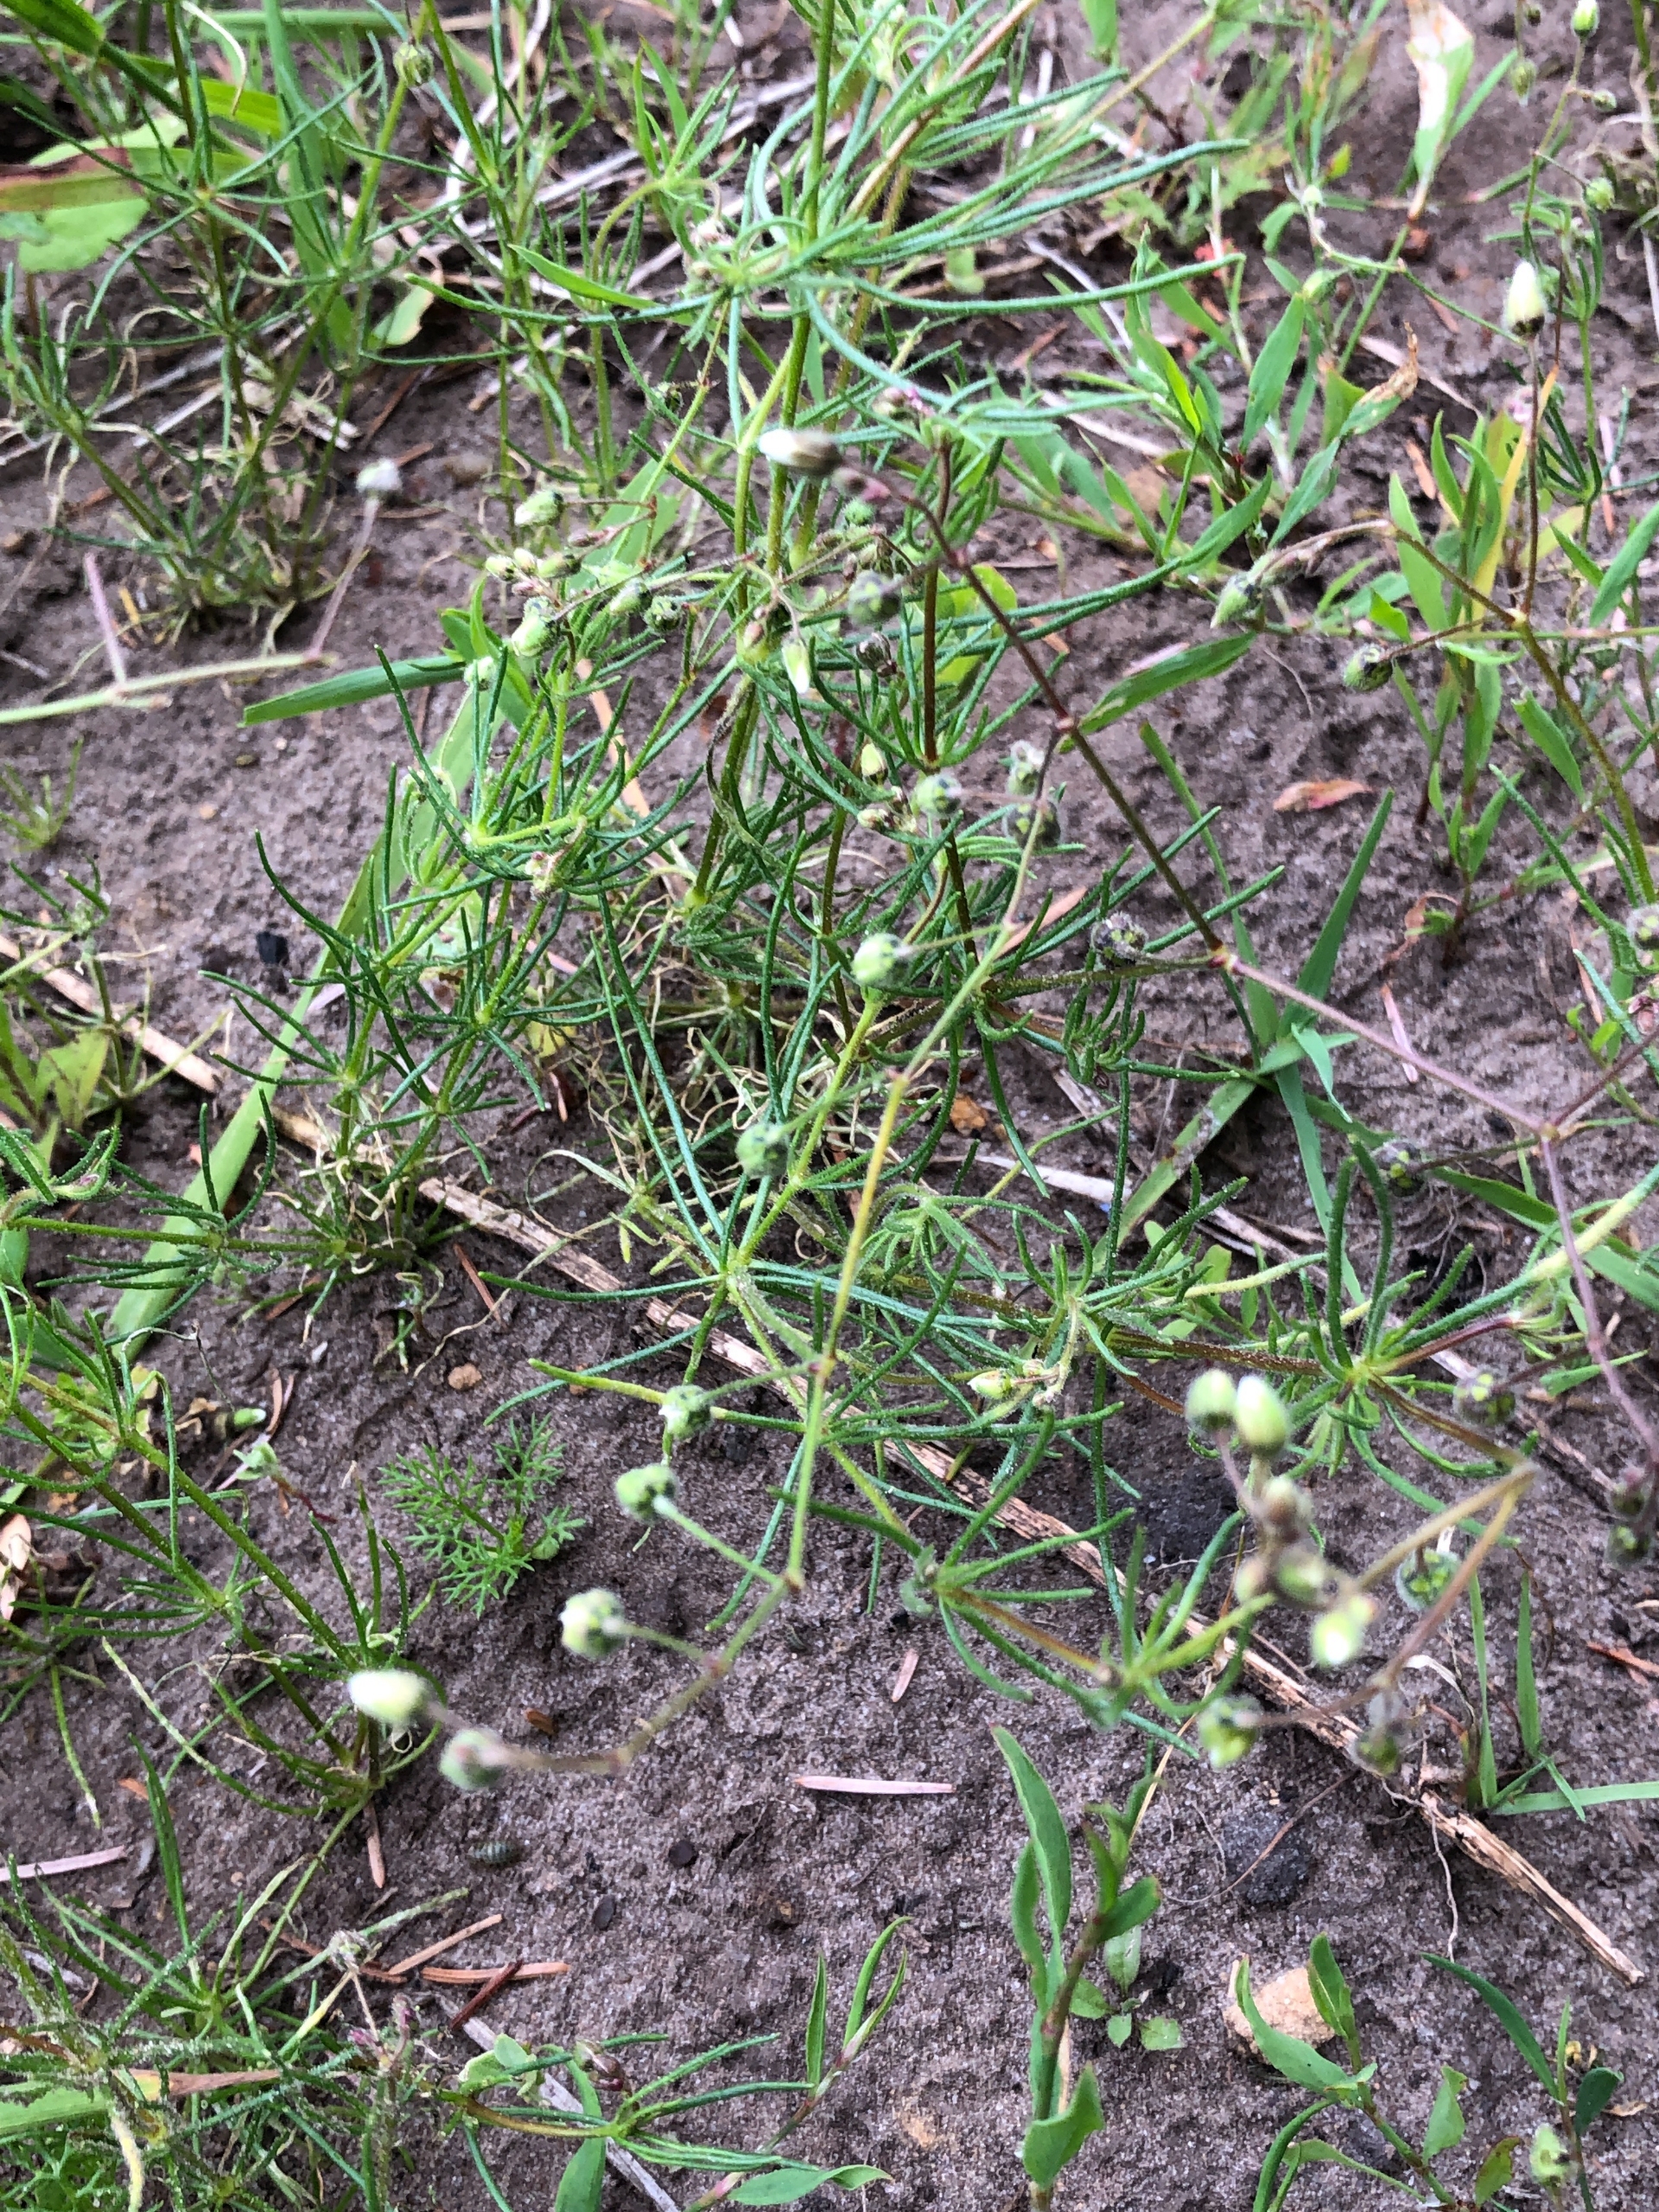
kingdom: Plantae
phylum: Tracheophyta
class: Magnoliopsida
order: Caryophyllales
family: Caryophyllaceae
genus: Spergula
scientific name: Spergula arvensis
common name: Almindelig spergel
